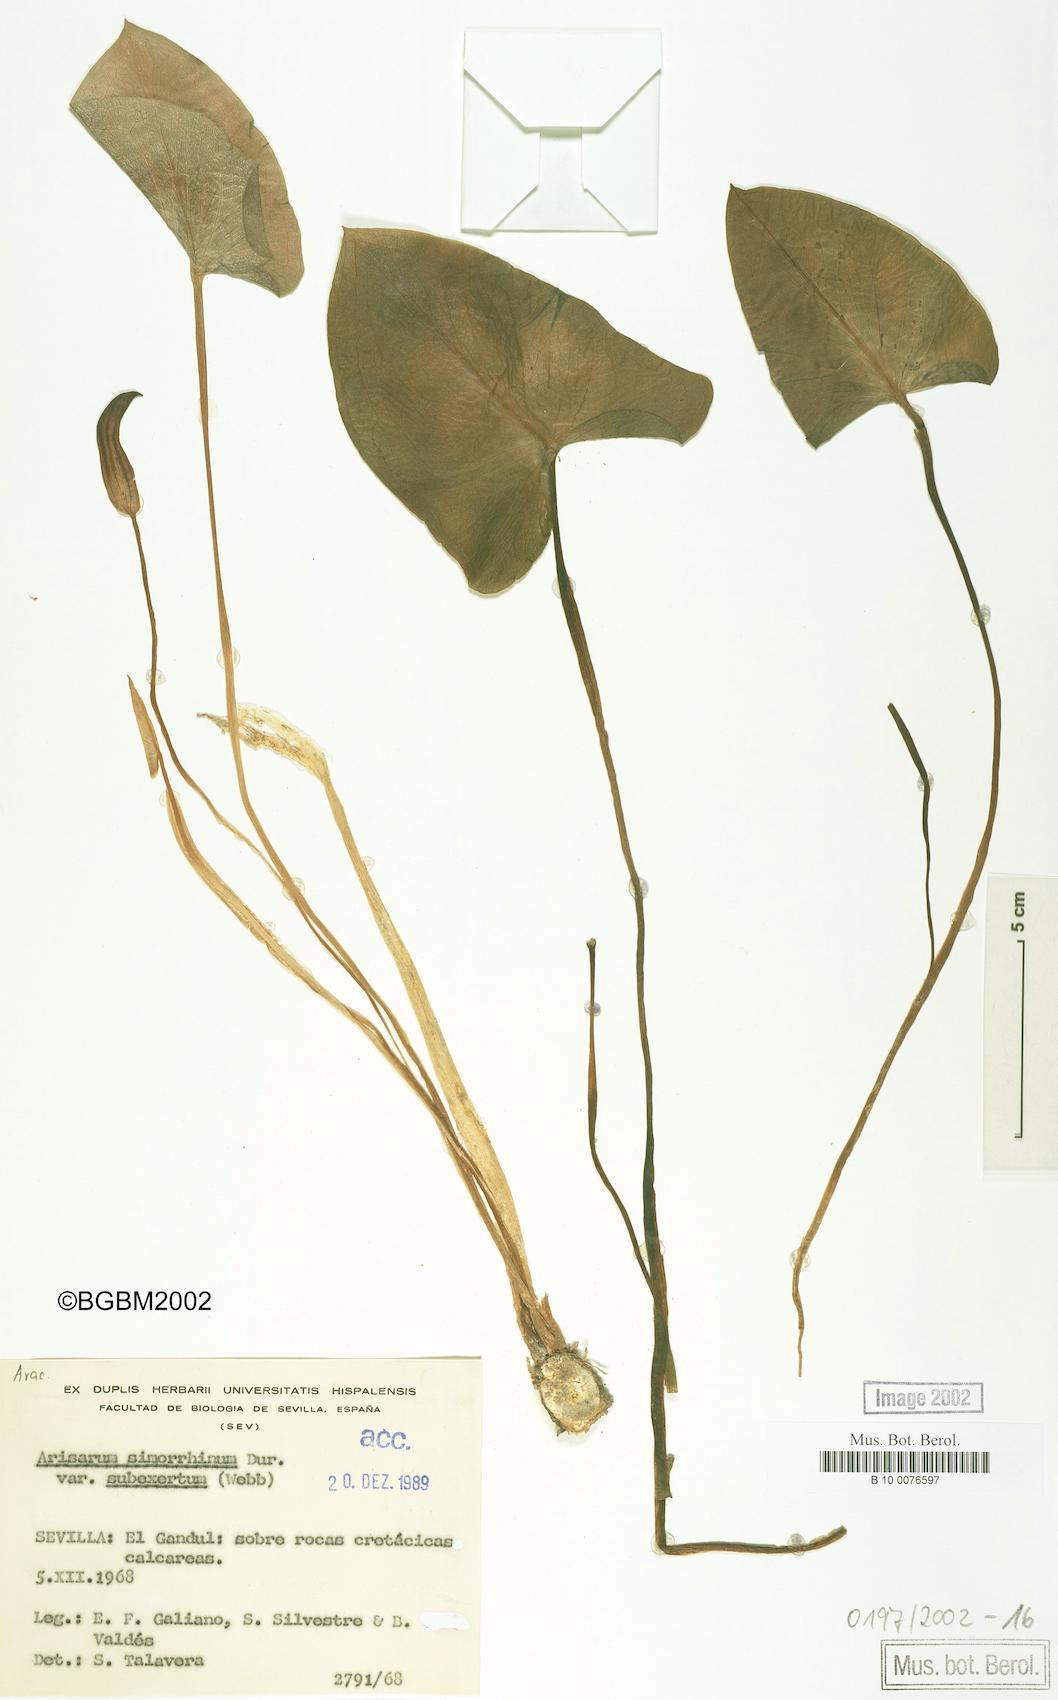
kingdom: Plantae
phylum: Tracheophyta
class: Liliopsida
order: Alismatales
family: Araceae
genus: Arisarum
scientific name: Arisarum simorrhinum
